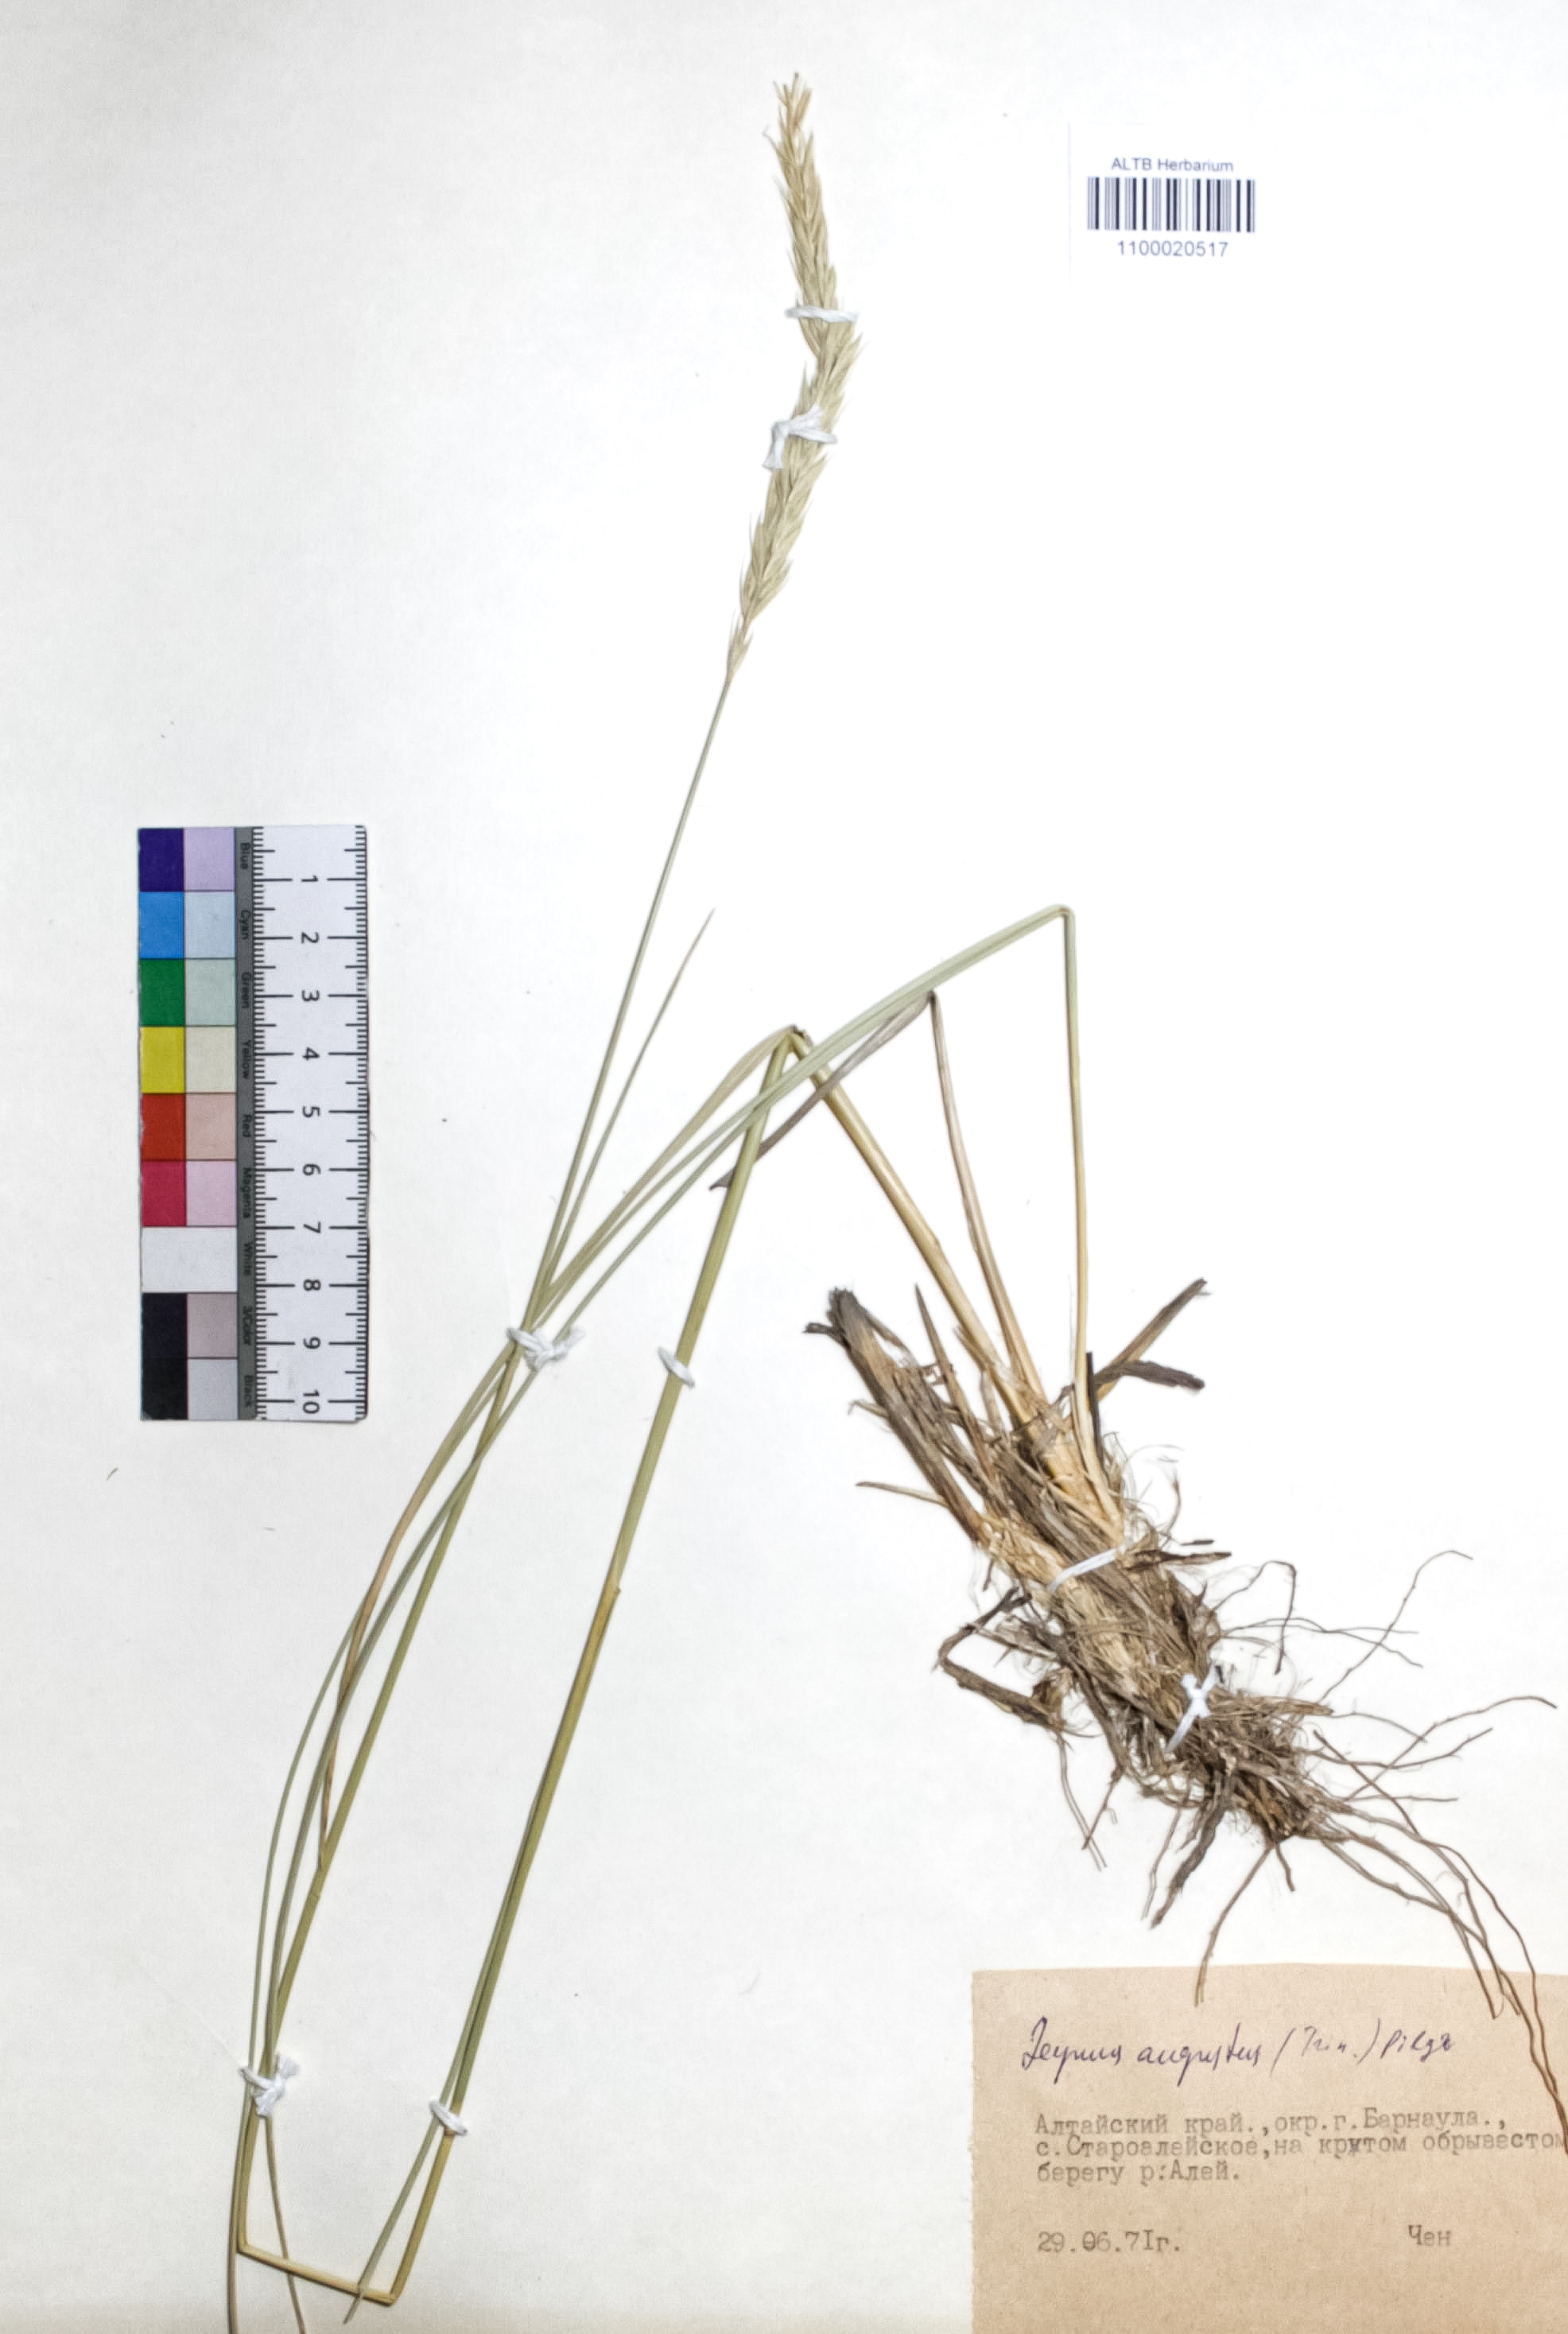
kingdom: Plantae
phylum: Tracheophyta
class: Liliopsida
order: Poales
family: Poaceae
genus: Leymus
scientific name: Leymus angustus
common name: Altai wildrye
